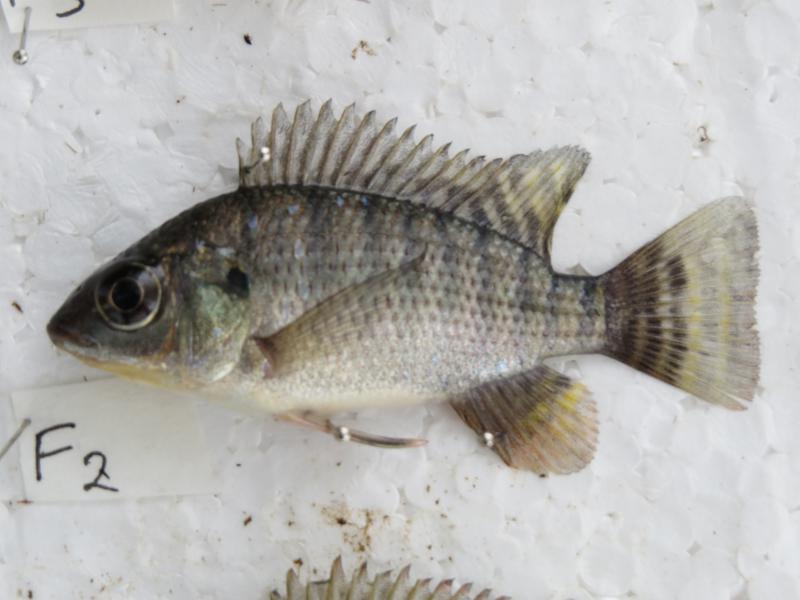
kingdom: Animalia
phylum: Chordata
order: Perciformes
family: Cichlidae
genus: Oreochromis
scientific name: Oreochromis niloticus
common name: Nile tilapia
